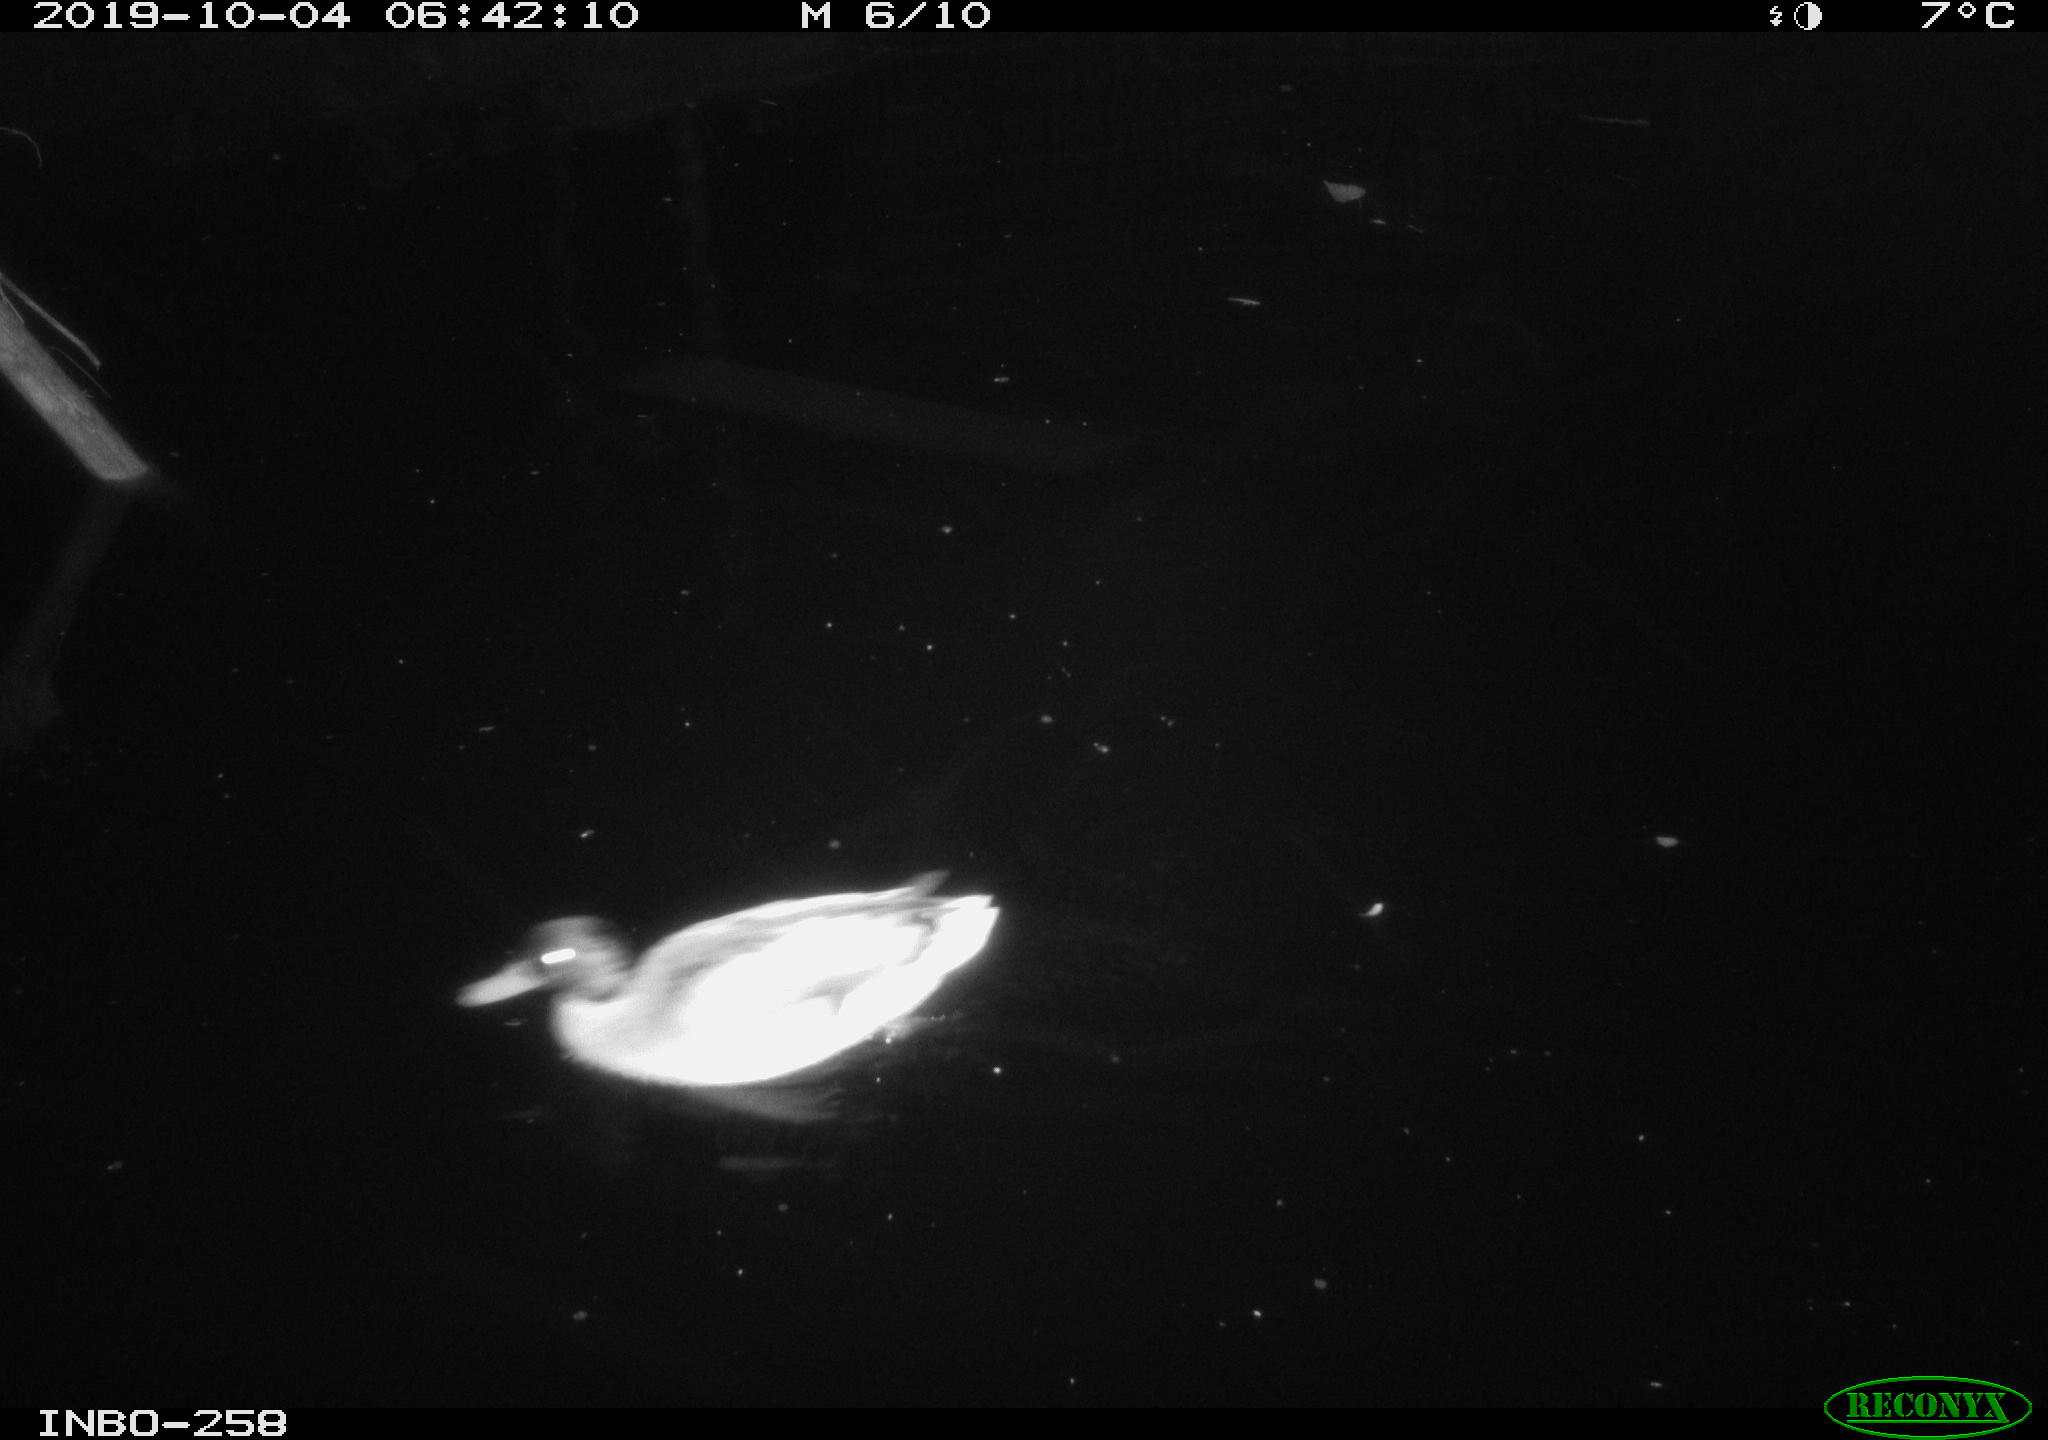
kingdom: Animalia
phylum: Chordata
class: Aves
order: Anseriformes
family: Anatidae
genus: Anas
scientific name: Anas platyrhynchos
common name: Mallard
